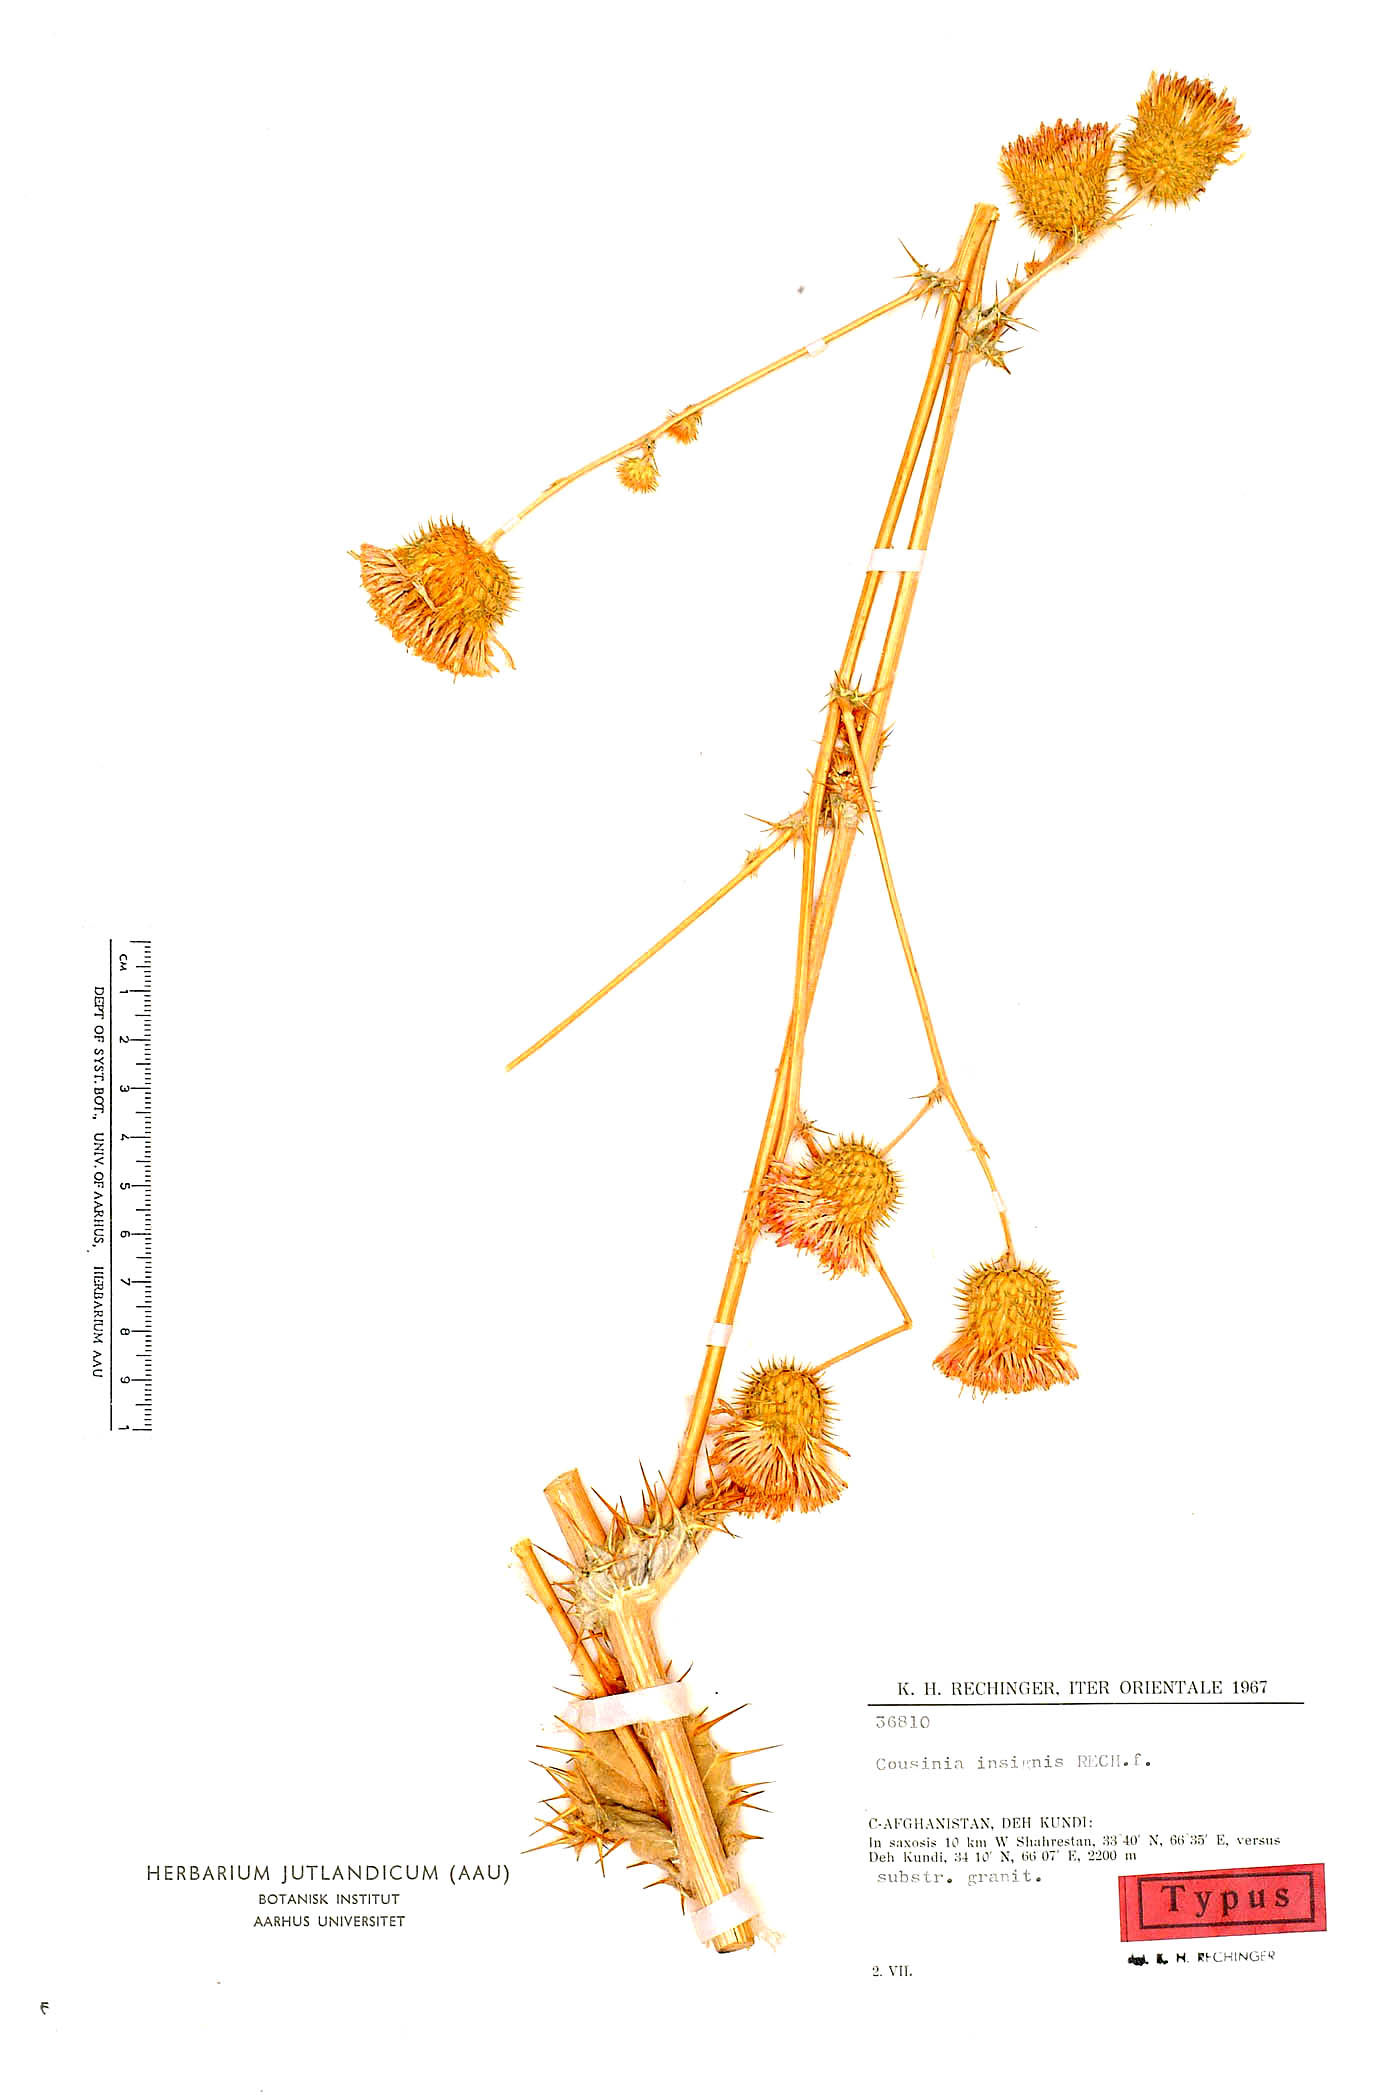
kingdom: Plantae
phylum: Tracheophyta
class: Magnoliopsida
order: Asterales
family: Asteraceae
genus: Cousinia
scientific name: Cousinia insignis
